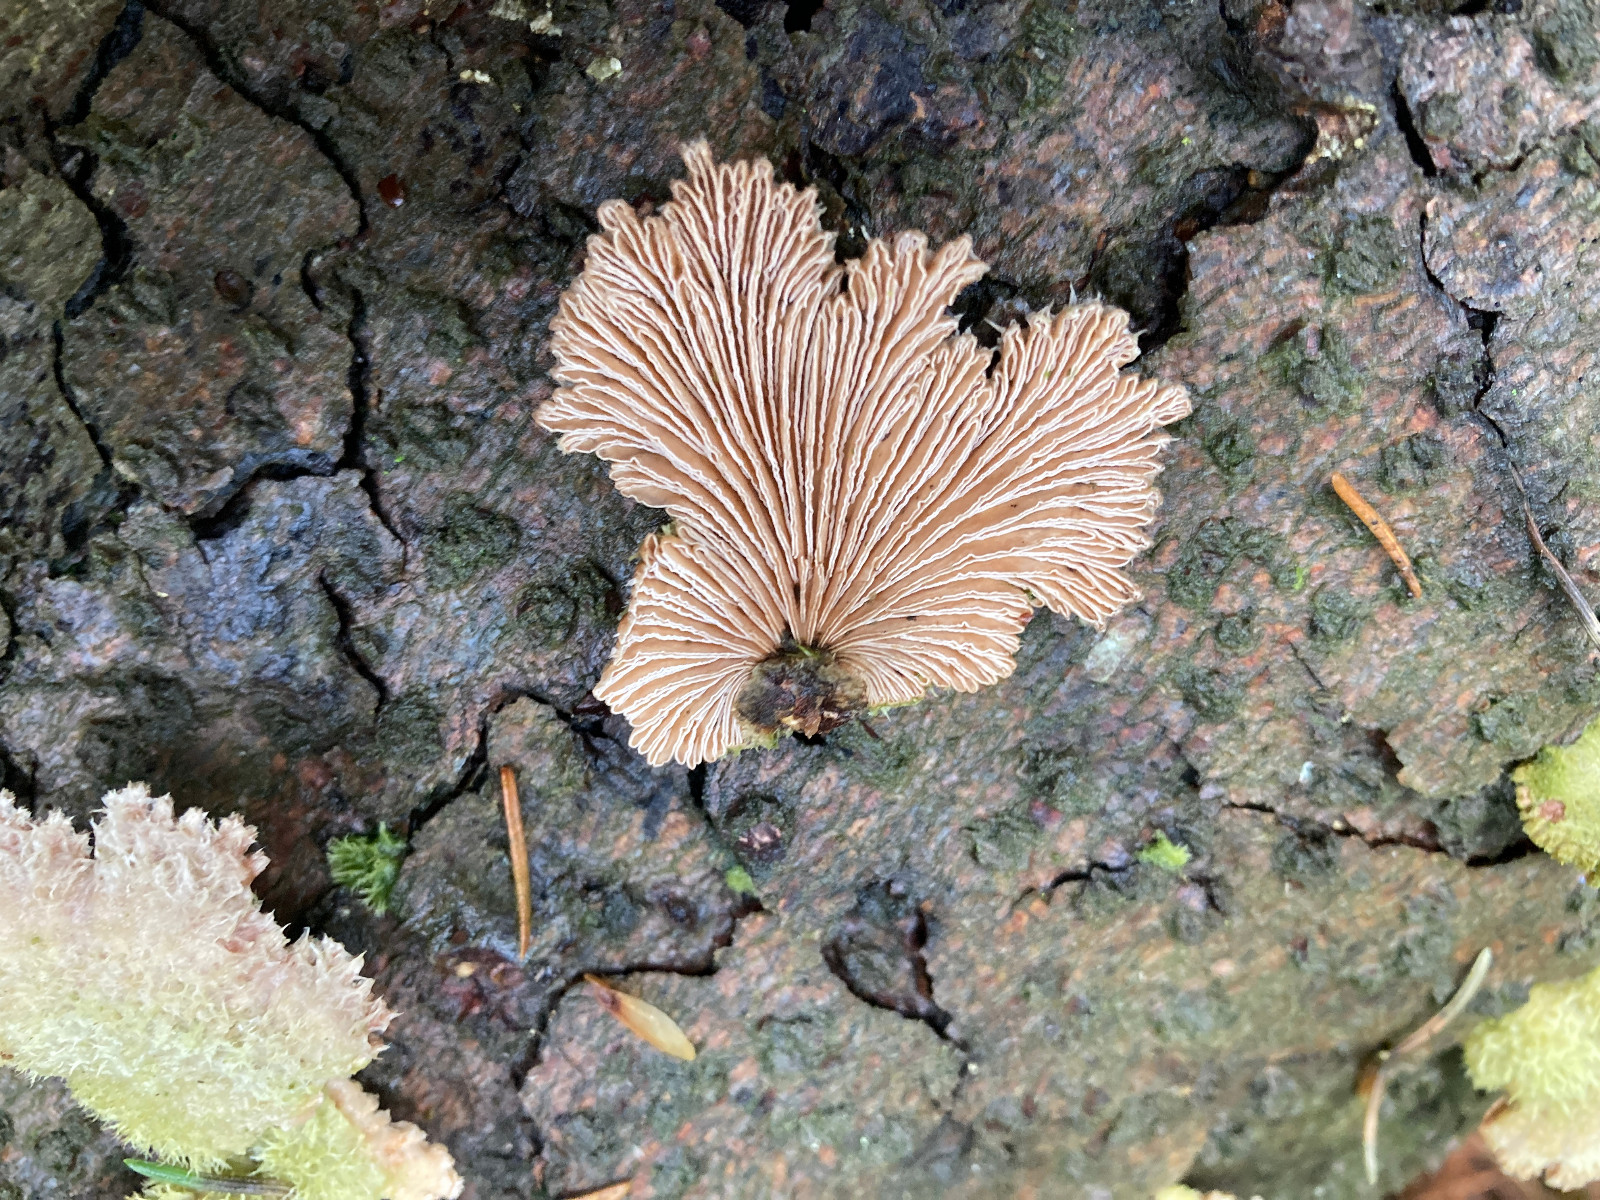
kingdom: Fungi
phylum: Basidiomycota
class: Agaricomycetes
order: Agaricales
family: Schizophyllaceae
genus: Schizophyllum
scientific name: Schizophyllum commune
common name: kløvblad
